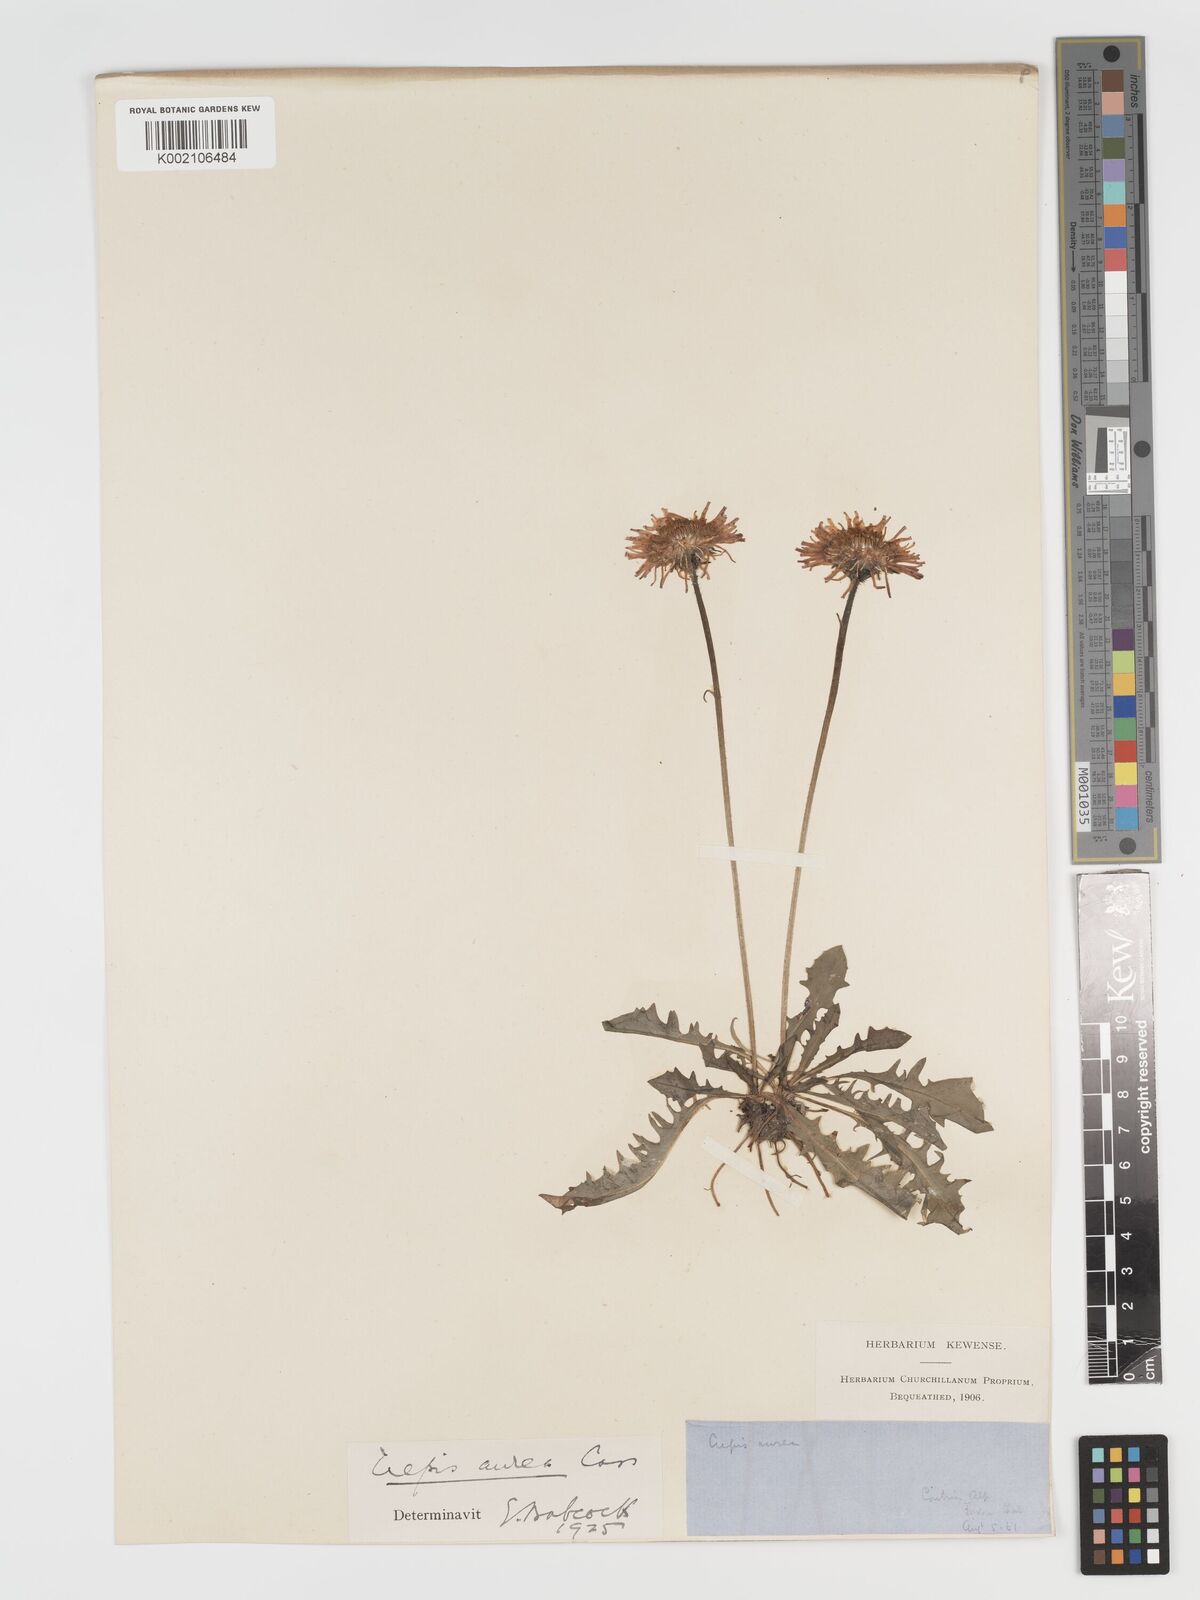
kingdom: Plantae
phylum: Tracheophyta
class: Magnoliopsida
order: Asterales
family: Asteraceae
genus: Crepis
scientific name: Crepis aurea
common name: Golden hawk's-beard
